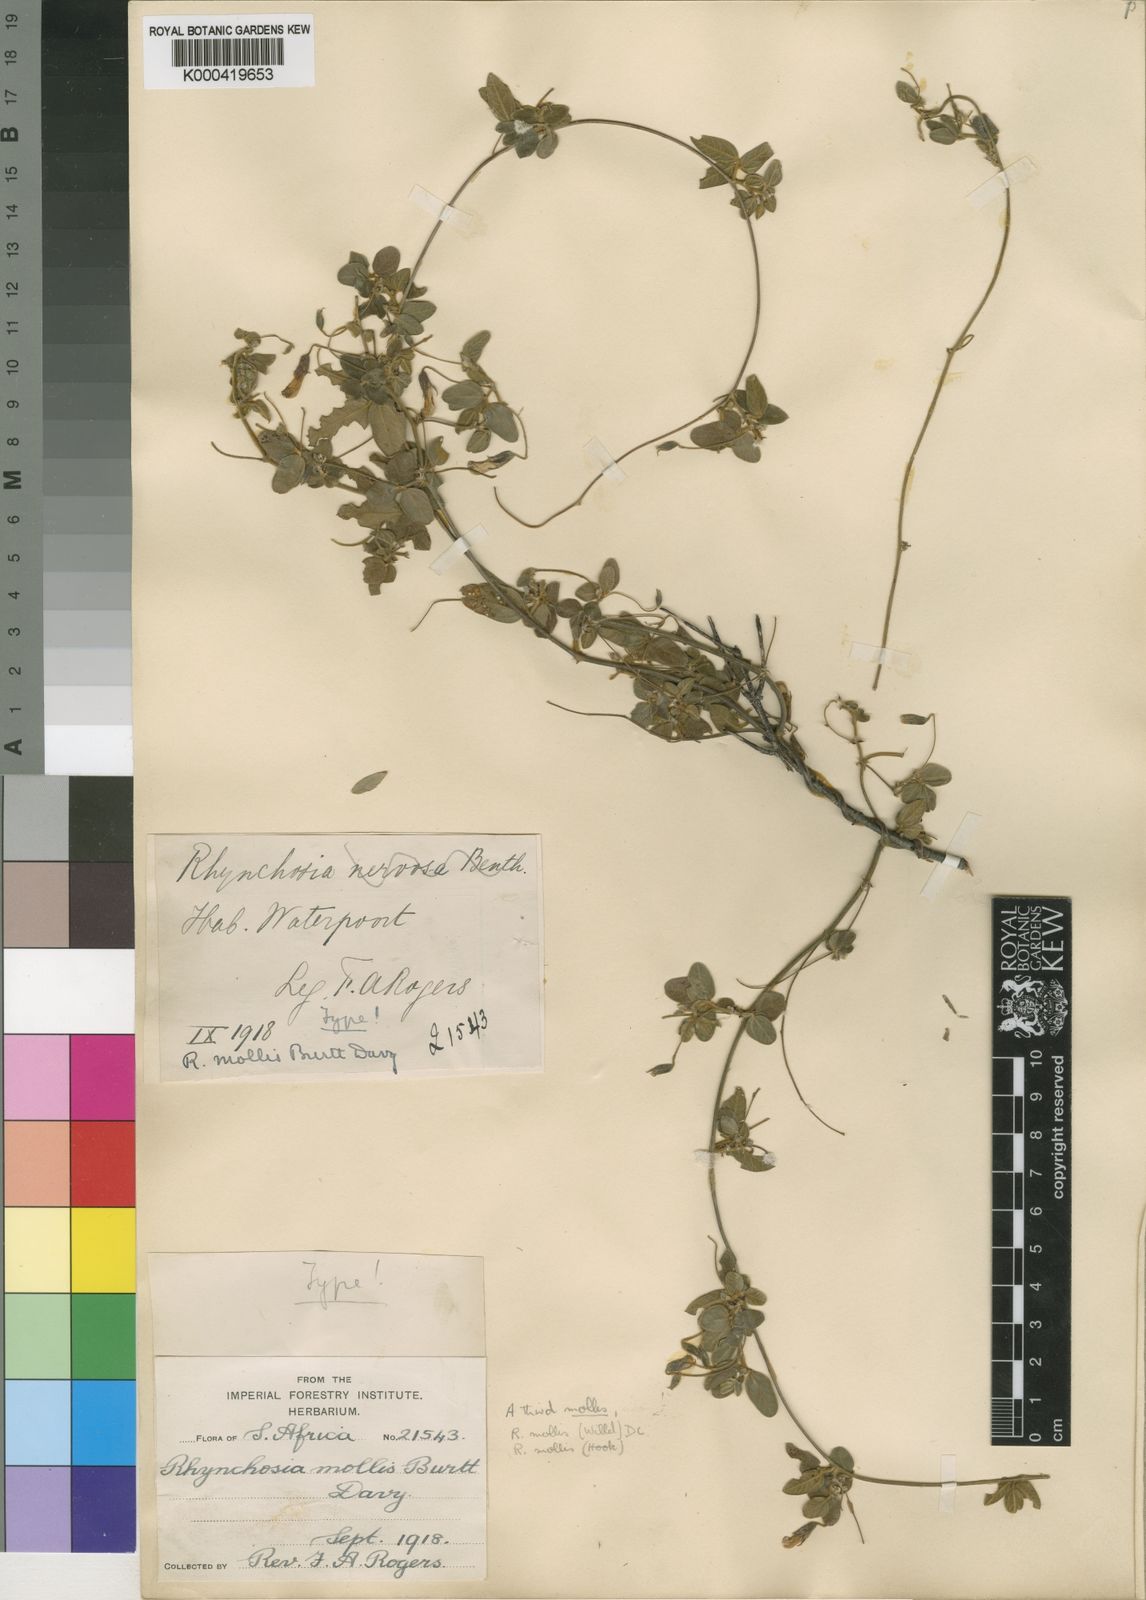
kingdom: Plantae
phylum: Tracheophyta
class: Magnoliopsida
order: Fabales
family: Fabaceae
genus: Rhynchosia
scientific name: Rhynchosia totta
